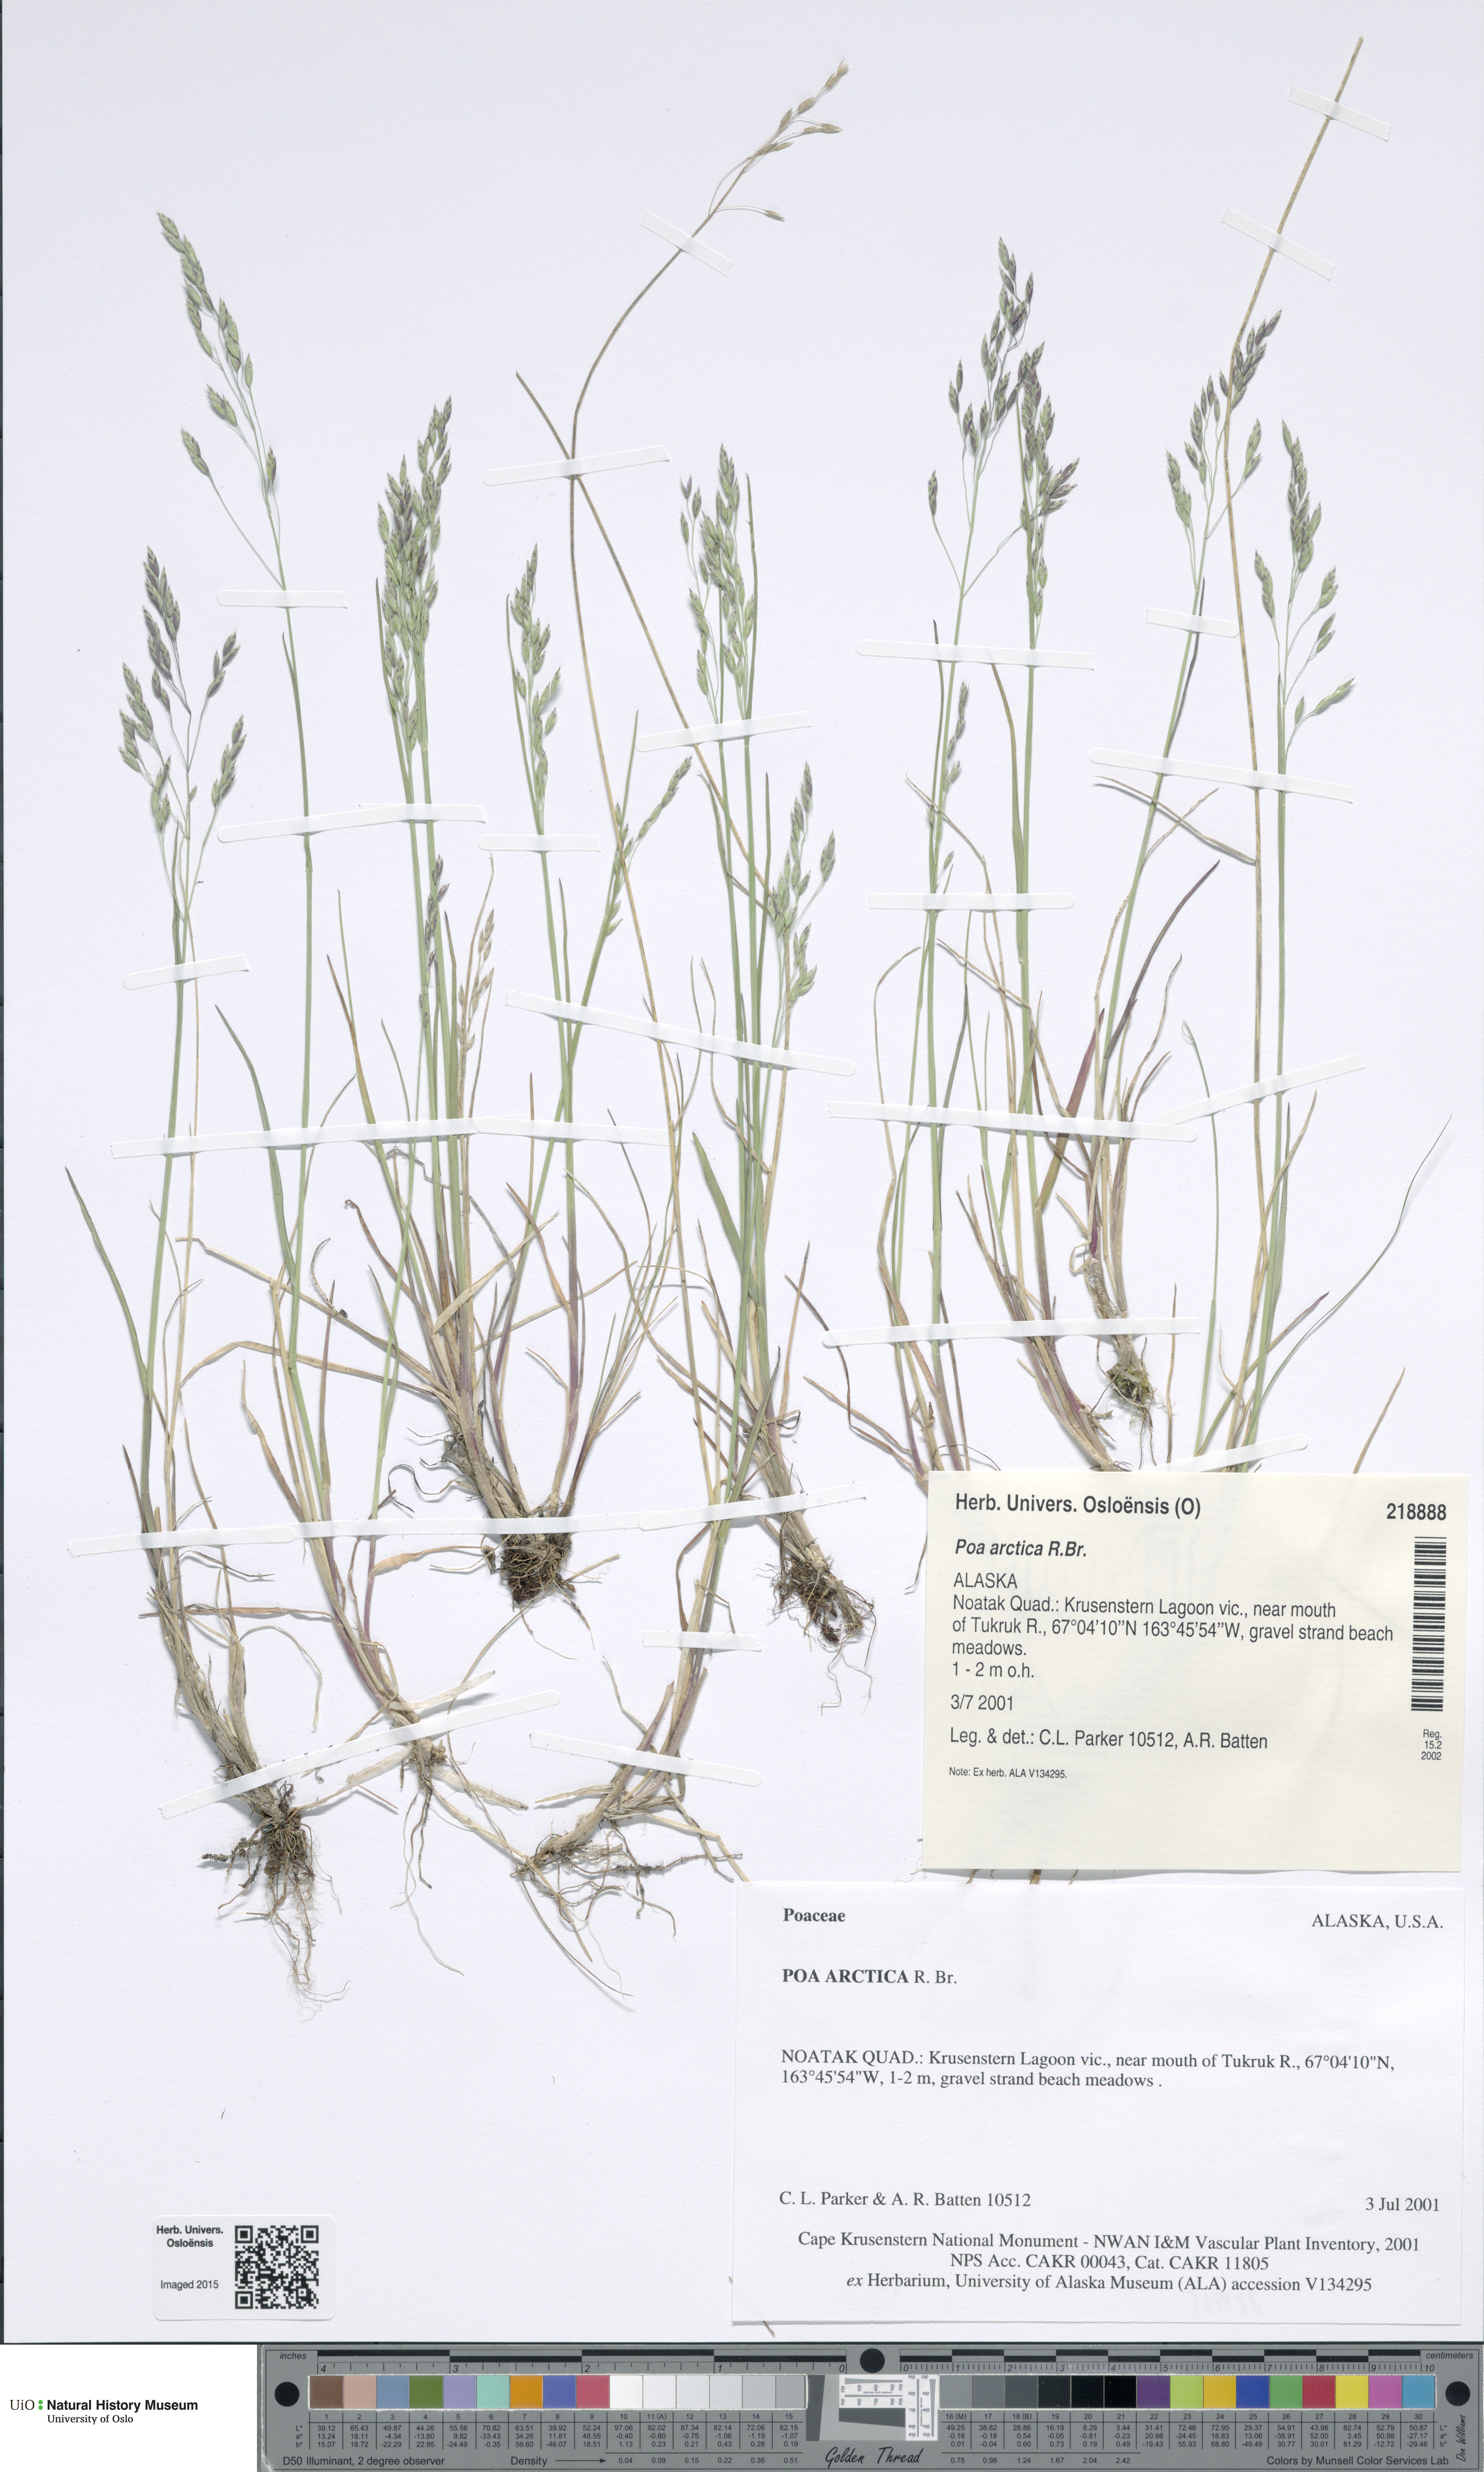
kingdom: Plantae
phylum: Tracheophyta
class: Liliopsida
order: Poales
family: Poaceae
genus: Poa
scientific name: Poa arctica
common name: Arctic bluegrass
